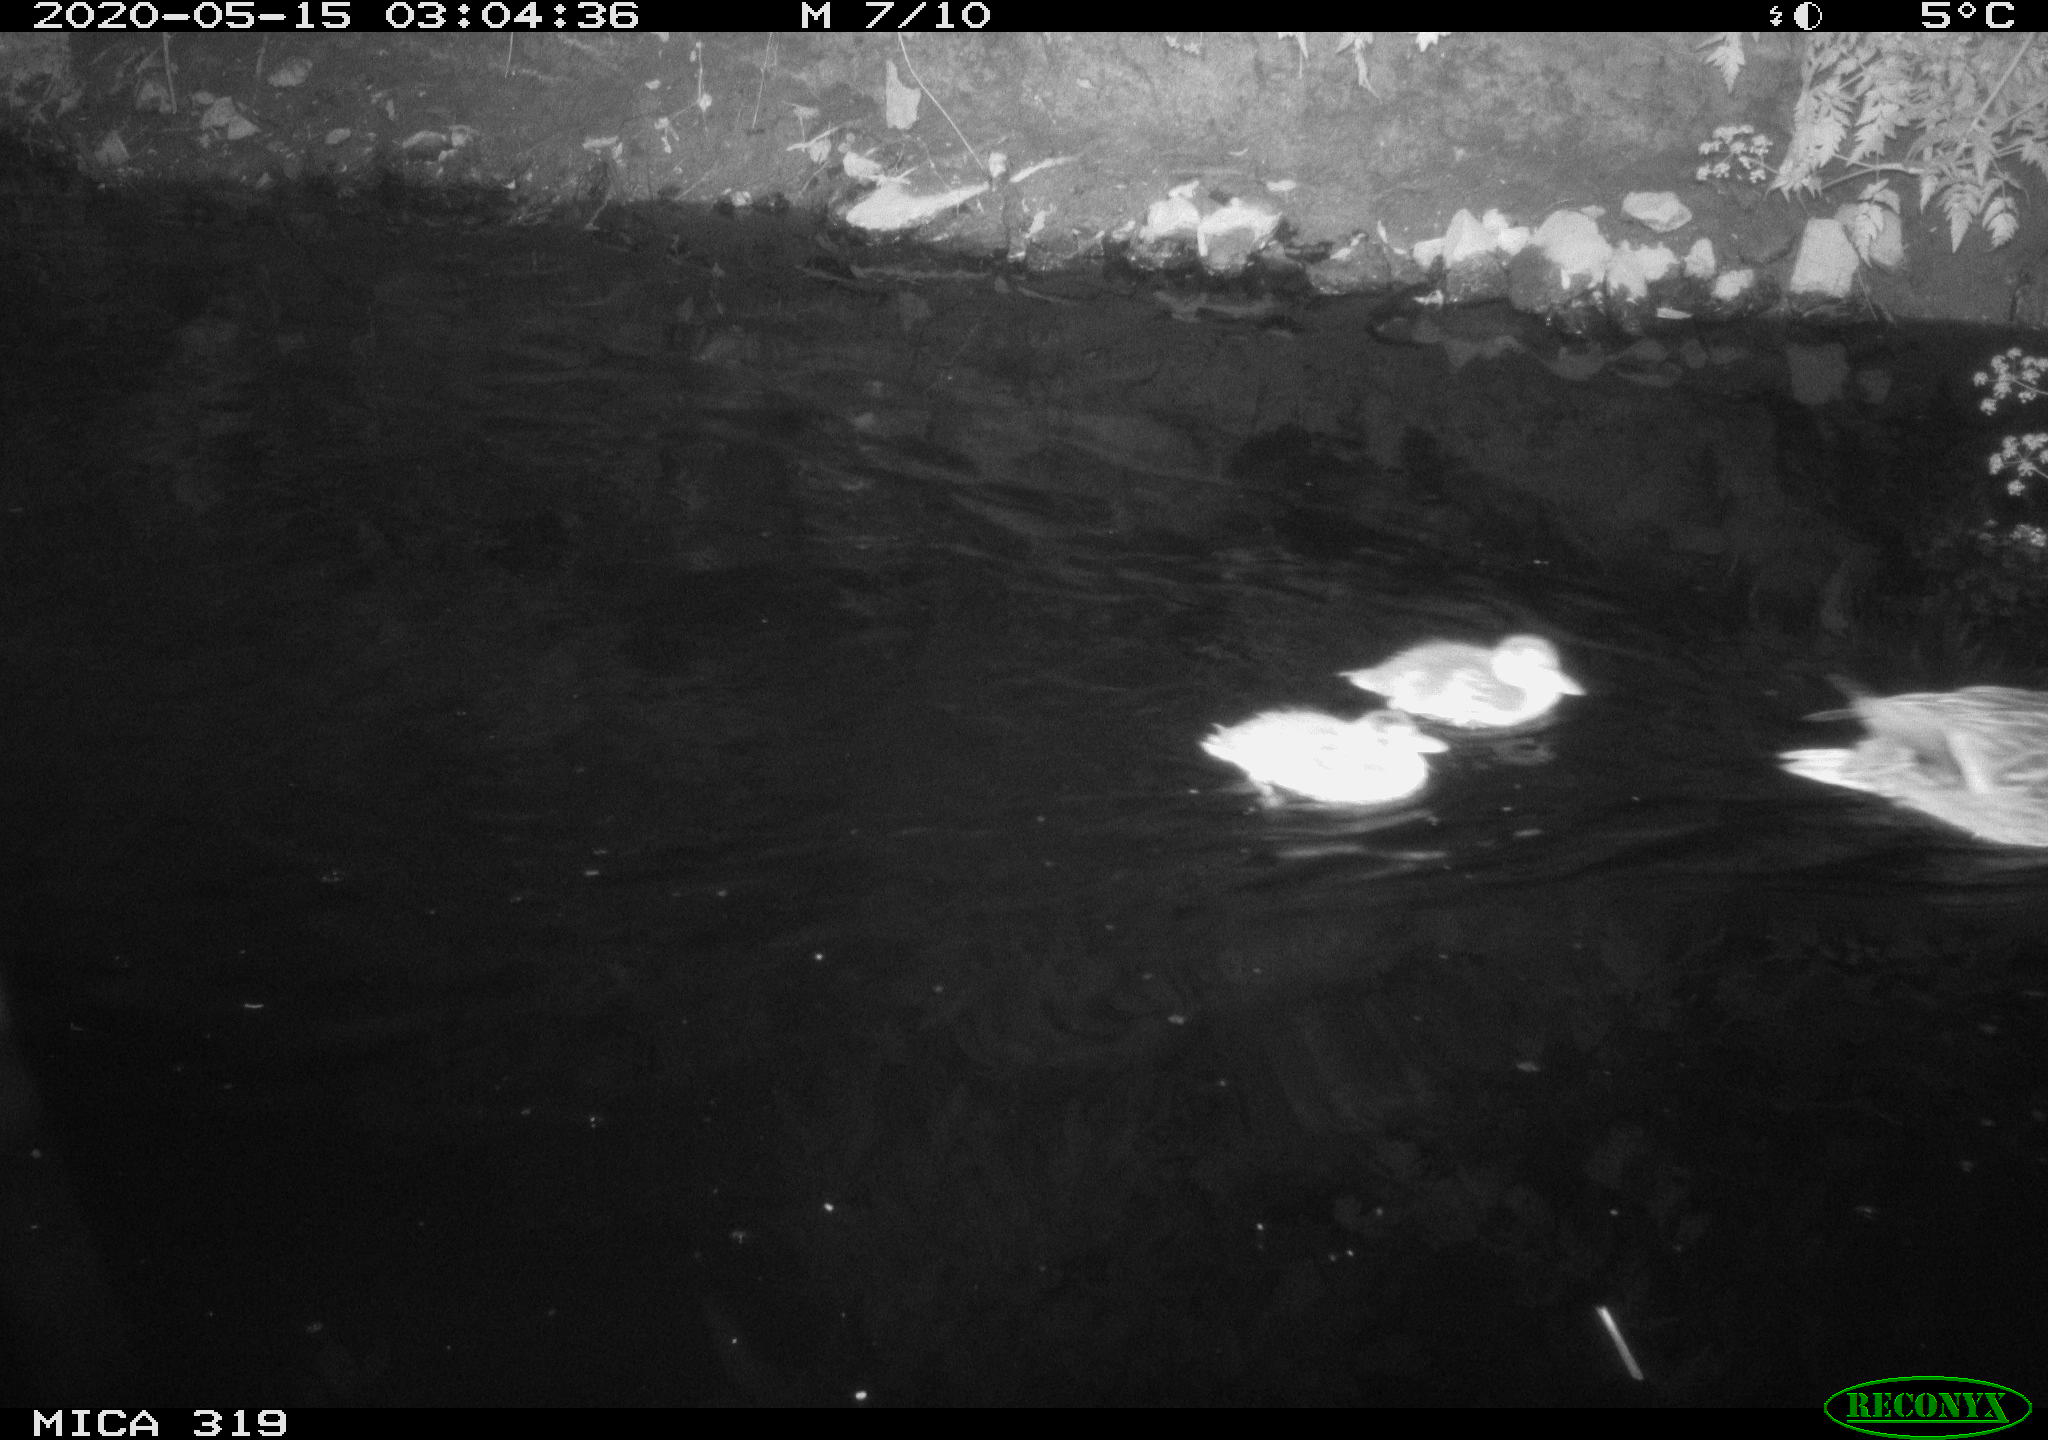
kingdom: Animalia
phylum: Chordata
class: Aves
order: Anseriformes
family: Anatidae
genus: Anas
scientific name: Anas platyrhynchos
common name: Mallard
